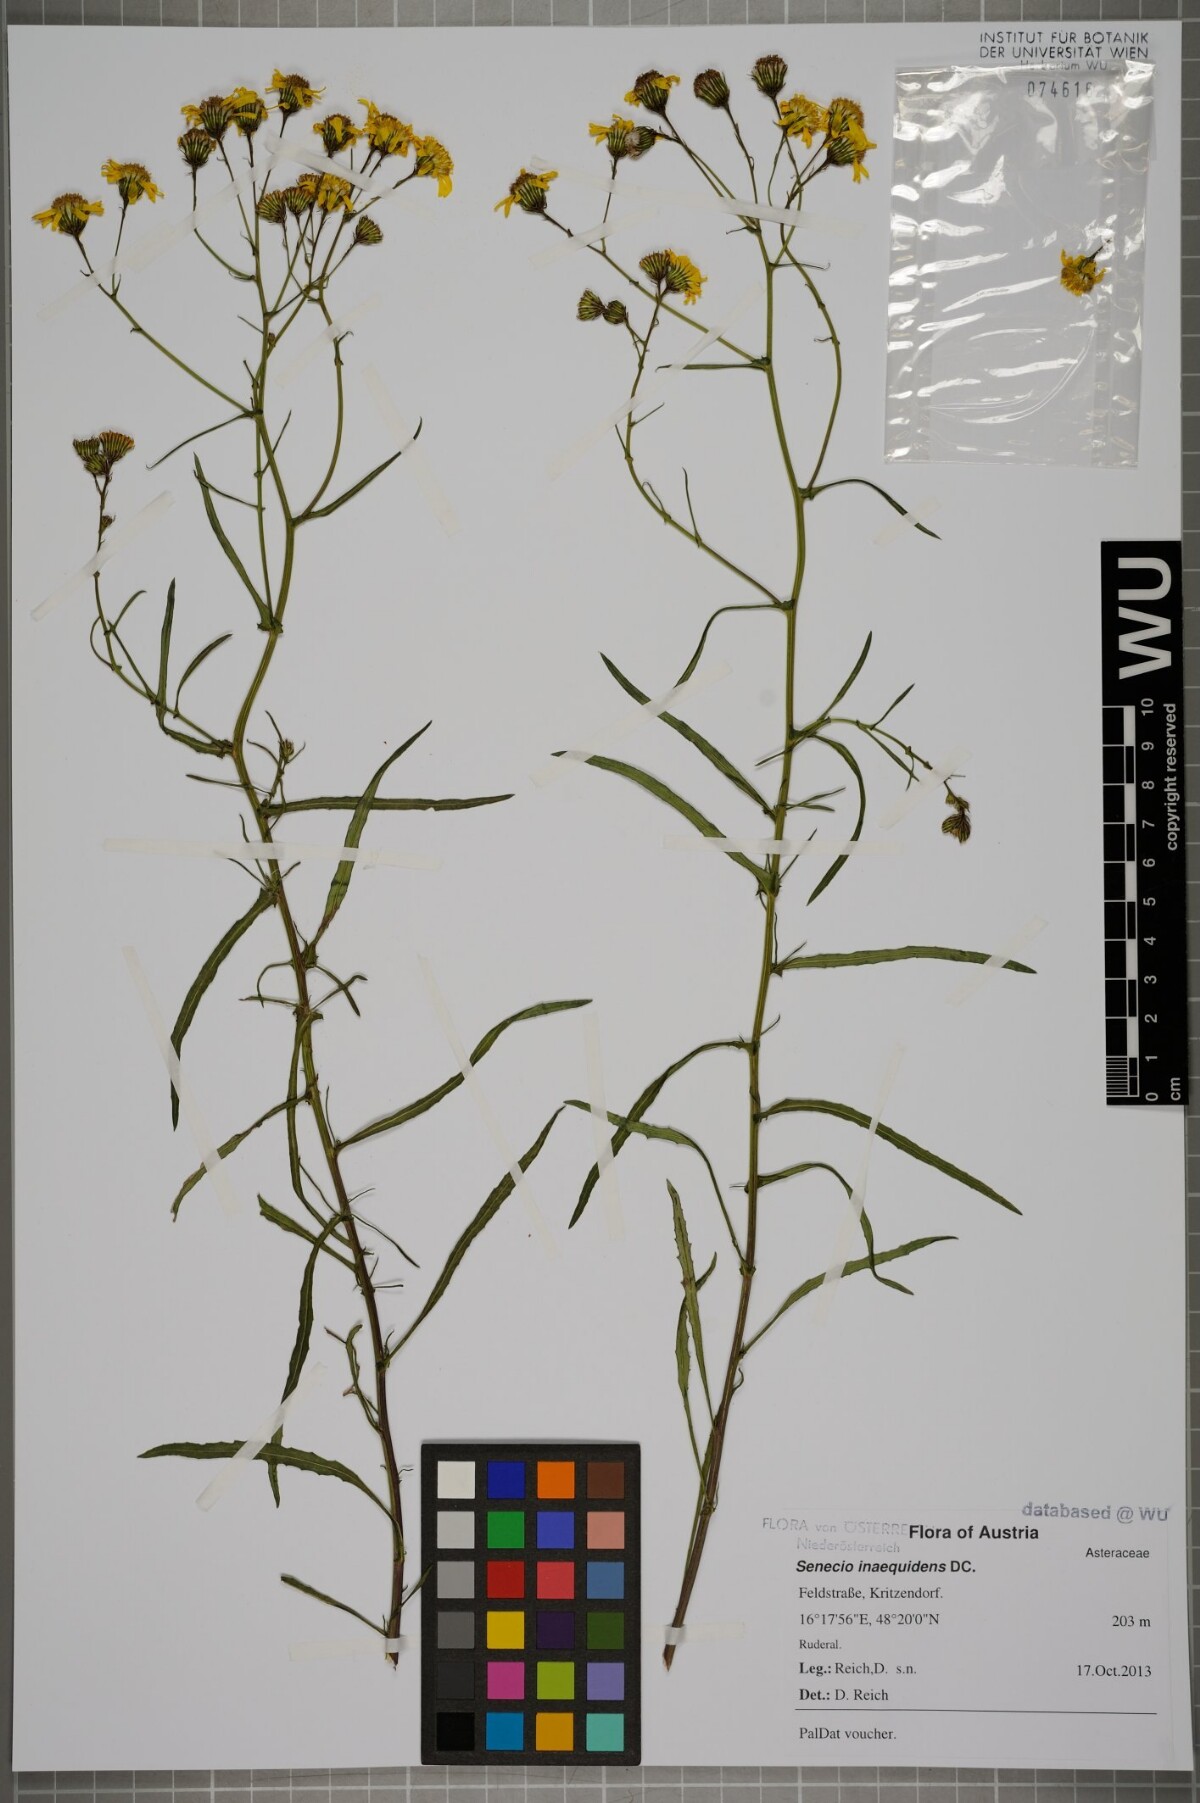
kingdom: Plantae
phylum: Tracheophyta
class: Magnoliopsida
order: Asterales
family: Asteraceae
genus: Senecio
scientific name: Senecio inaequidens
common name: Narrow-leaved ragwort
